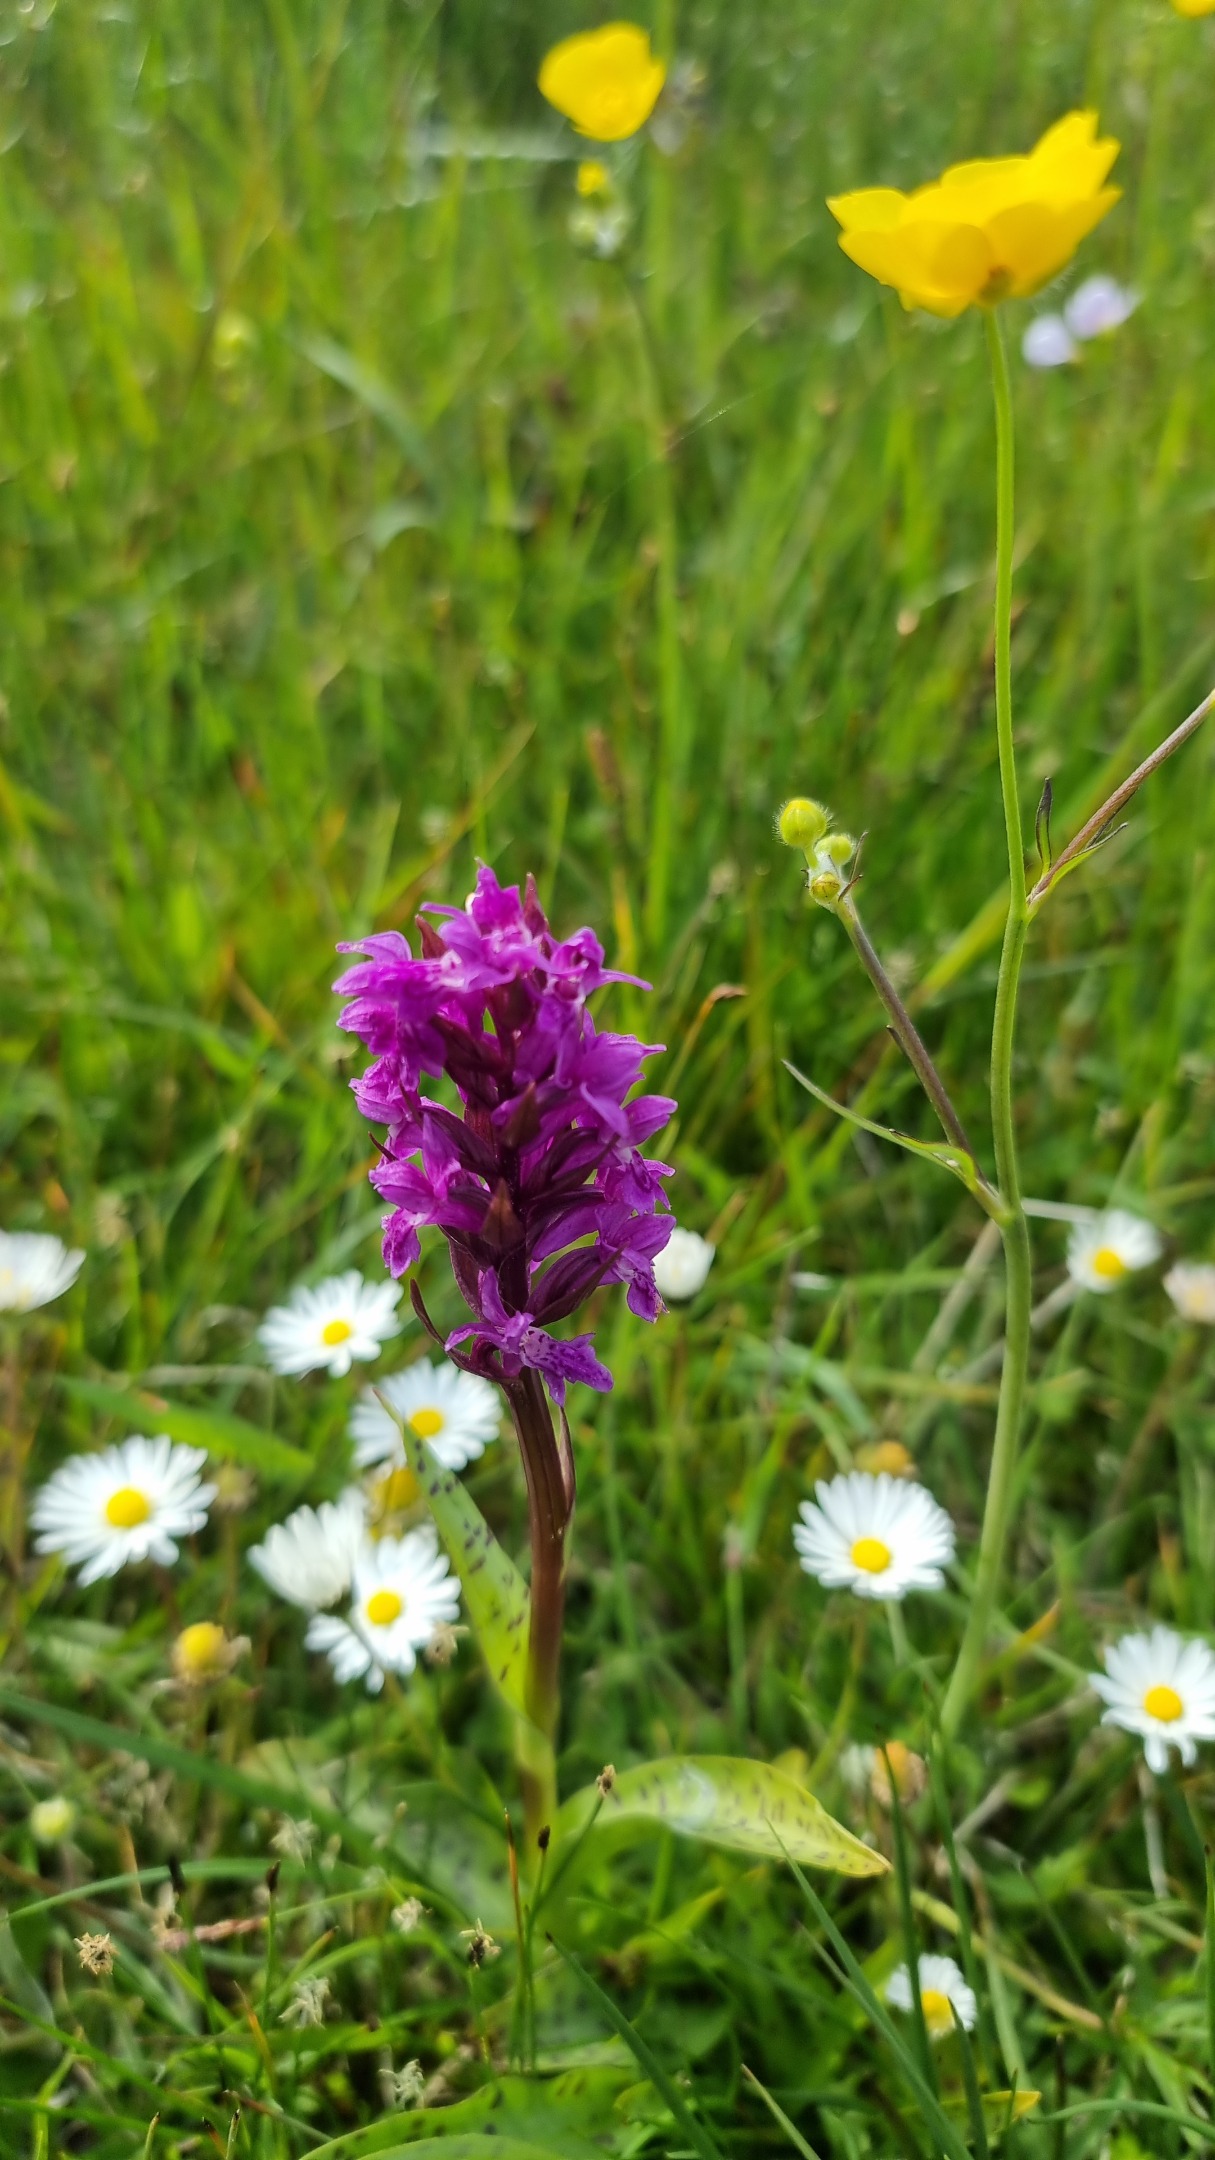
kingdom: Plantae
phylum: Tracheophyta
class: Liliopsida
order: Asparagales
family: Orchidaceae
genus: Dactylorhiza
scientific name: Dactylorhiza majalis
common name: Maj-gøgeurt
